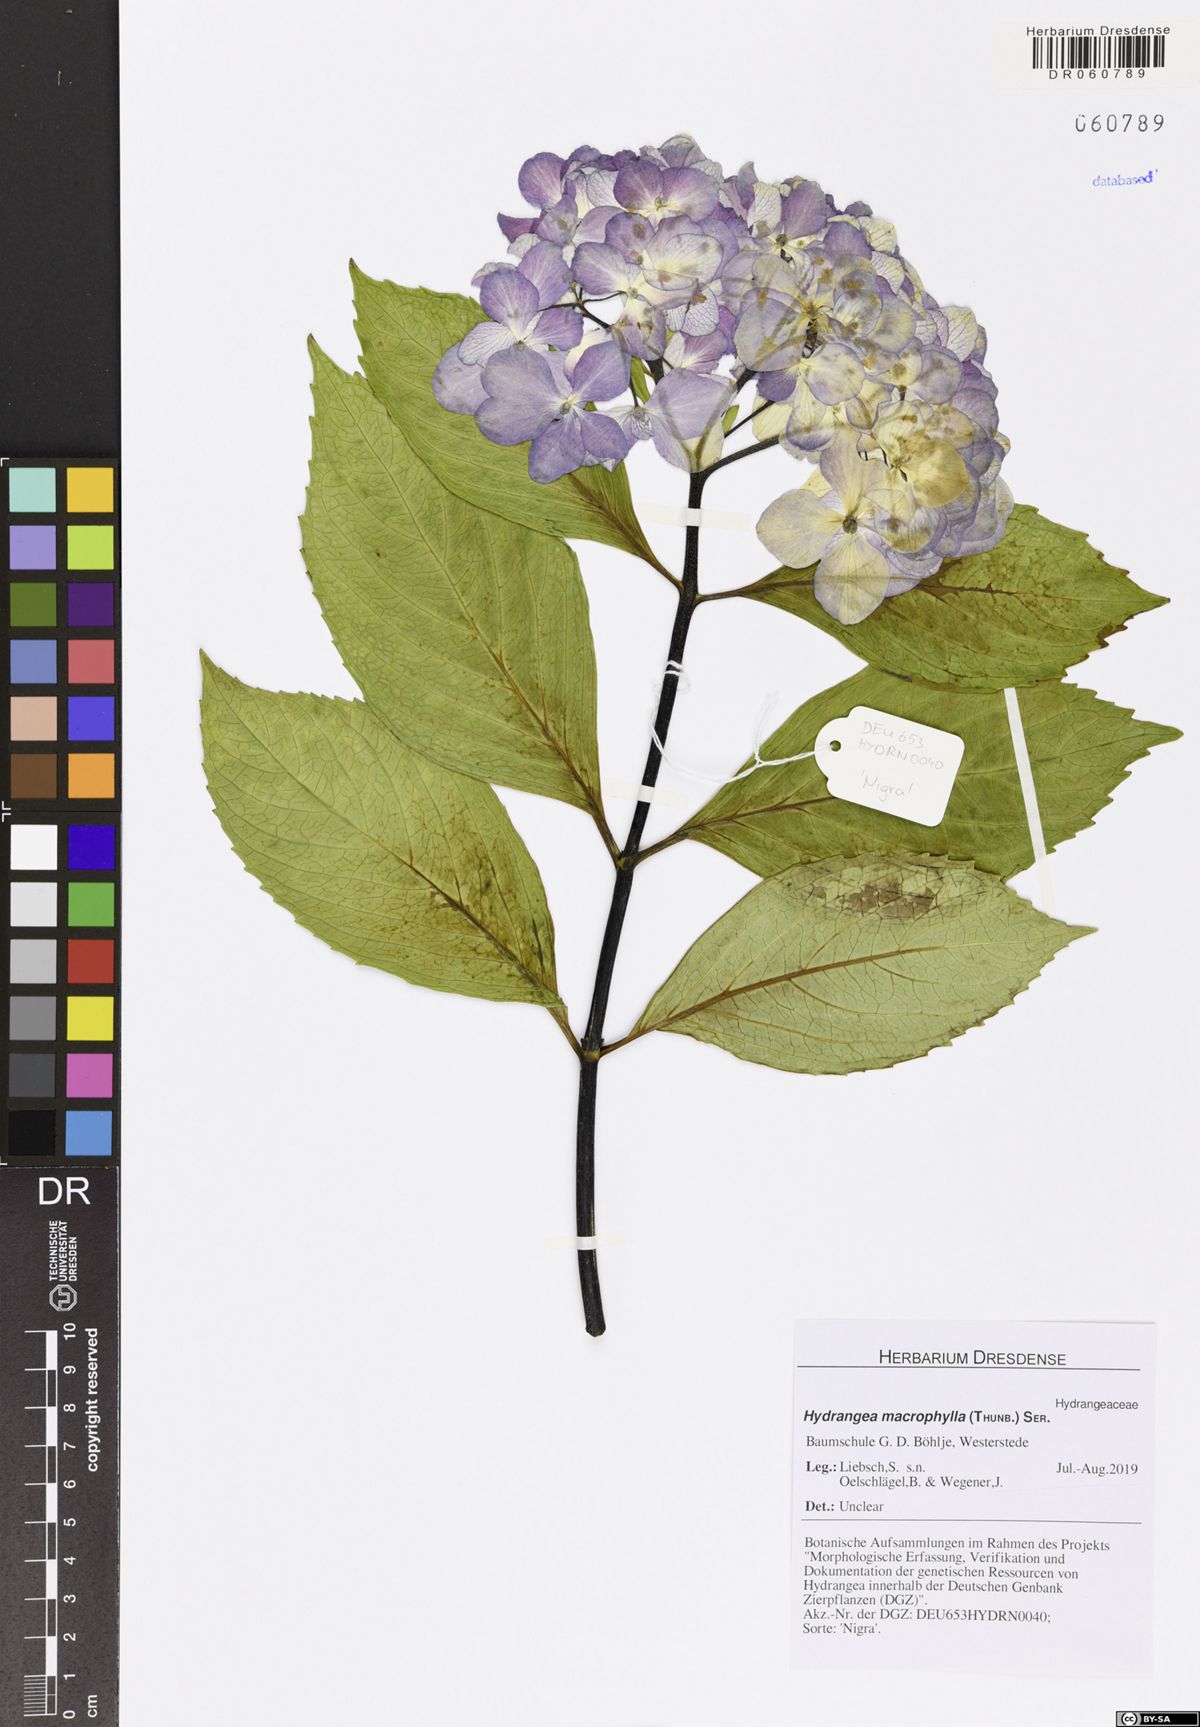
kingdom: Plantae
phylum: Tracheophyta
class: Magnoliopsida
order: Cornales
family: Hydrangeaceae
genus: Hydrangea
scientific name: Hydrangea macrophylla
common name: Hydrangea
